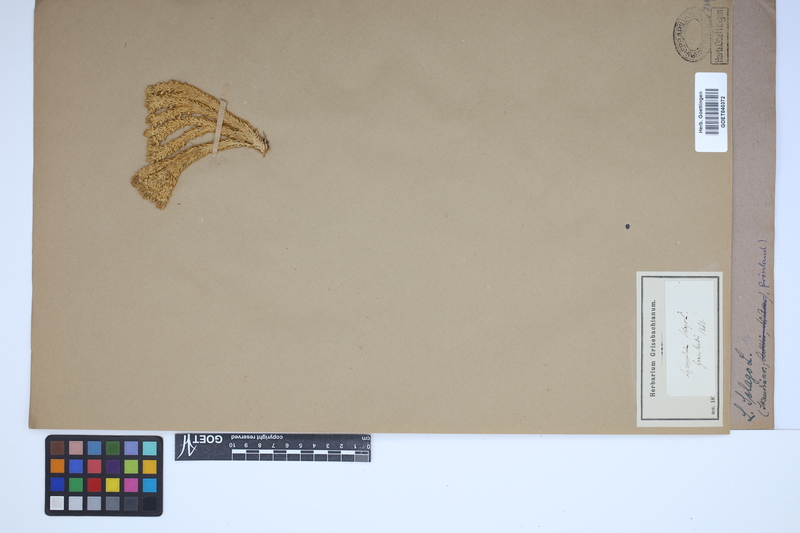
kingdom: Plantae
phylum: Tracheophyta
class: Lycopodiopsida
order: Lycopodiales
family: Lycopodiaceae
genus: Huperzia
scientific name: Huperzia selago
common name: Northern firmoss
